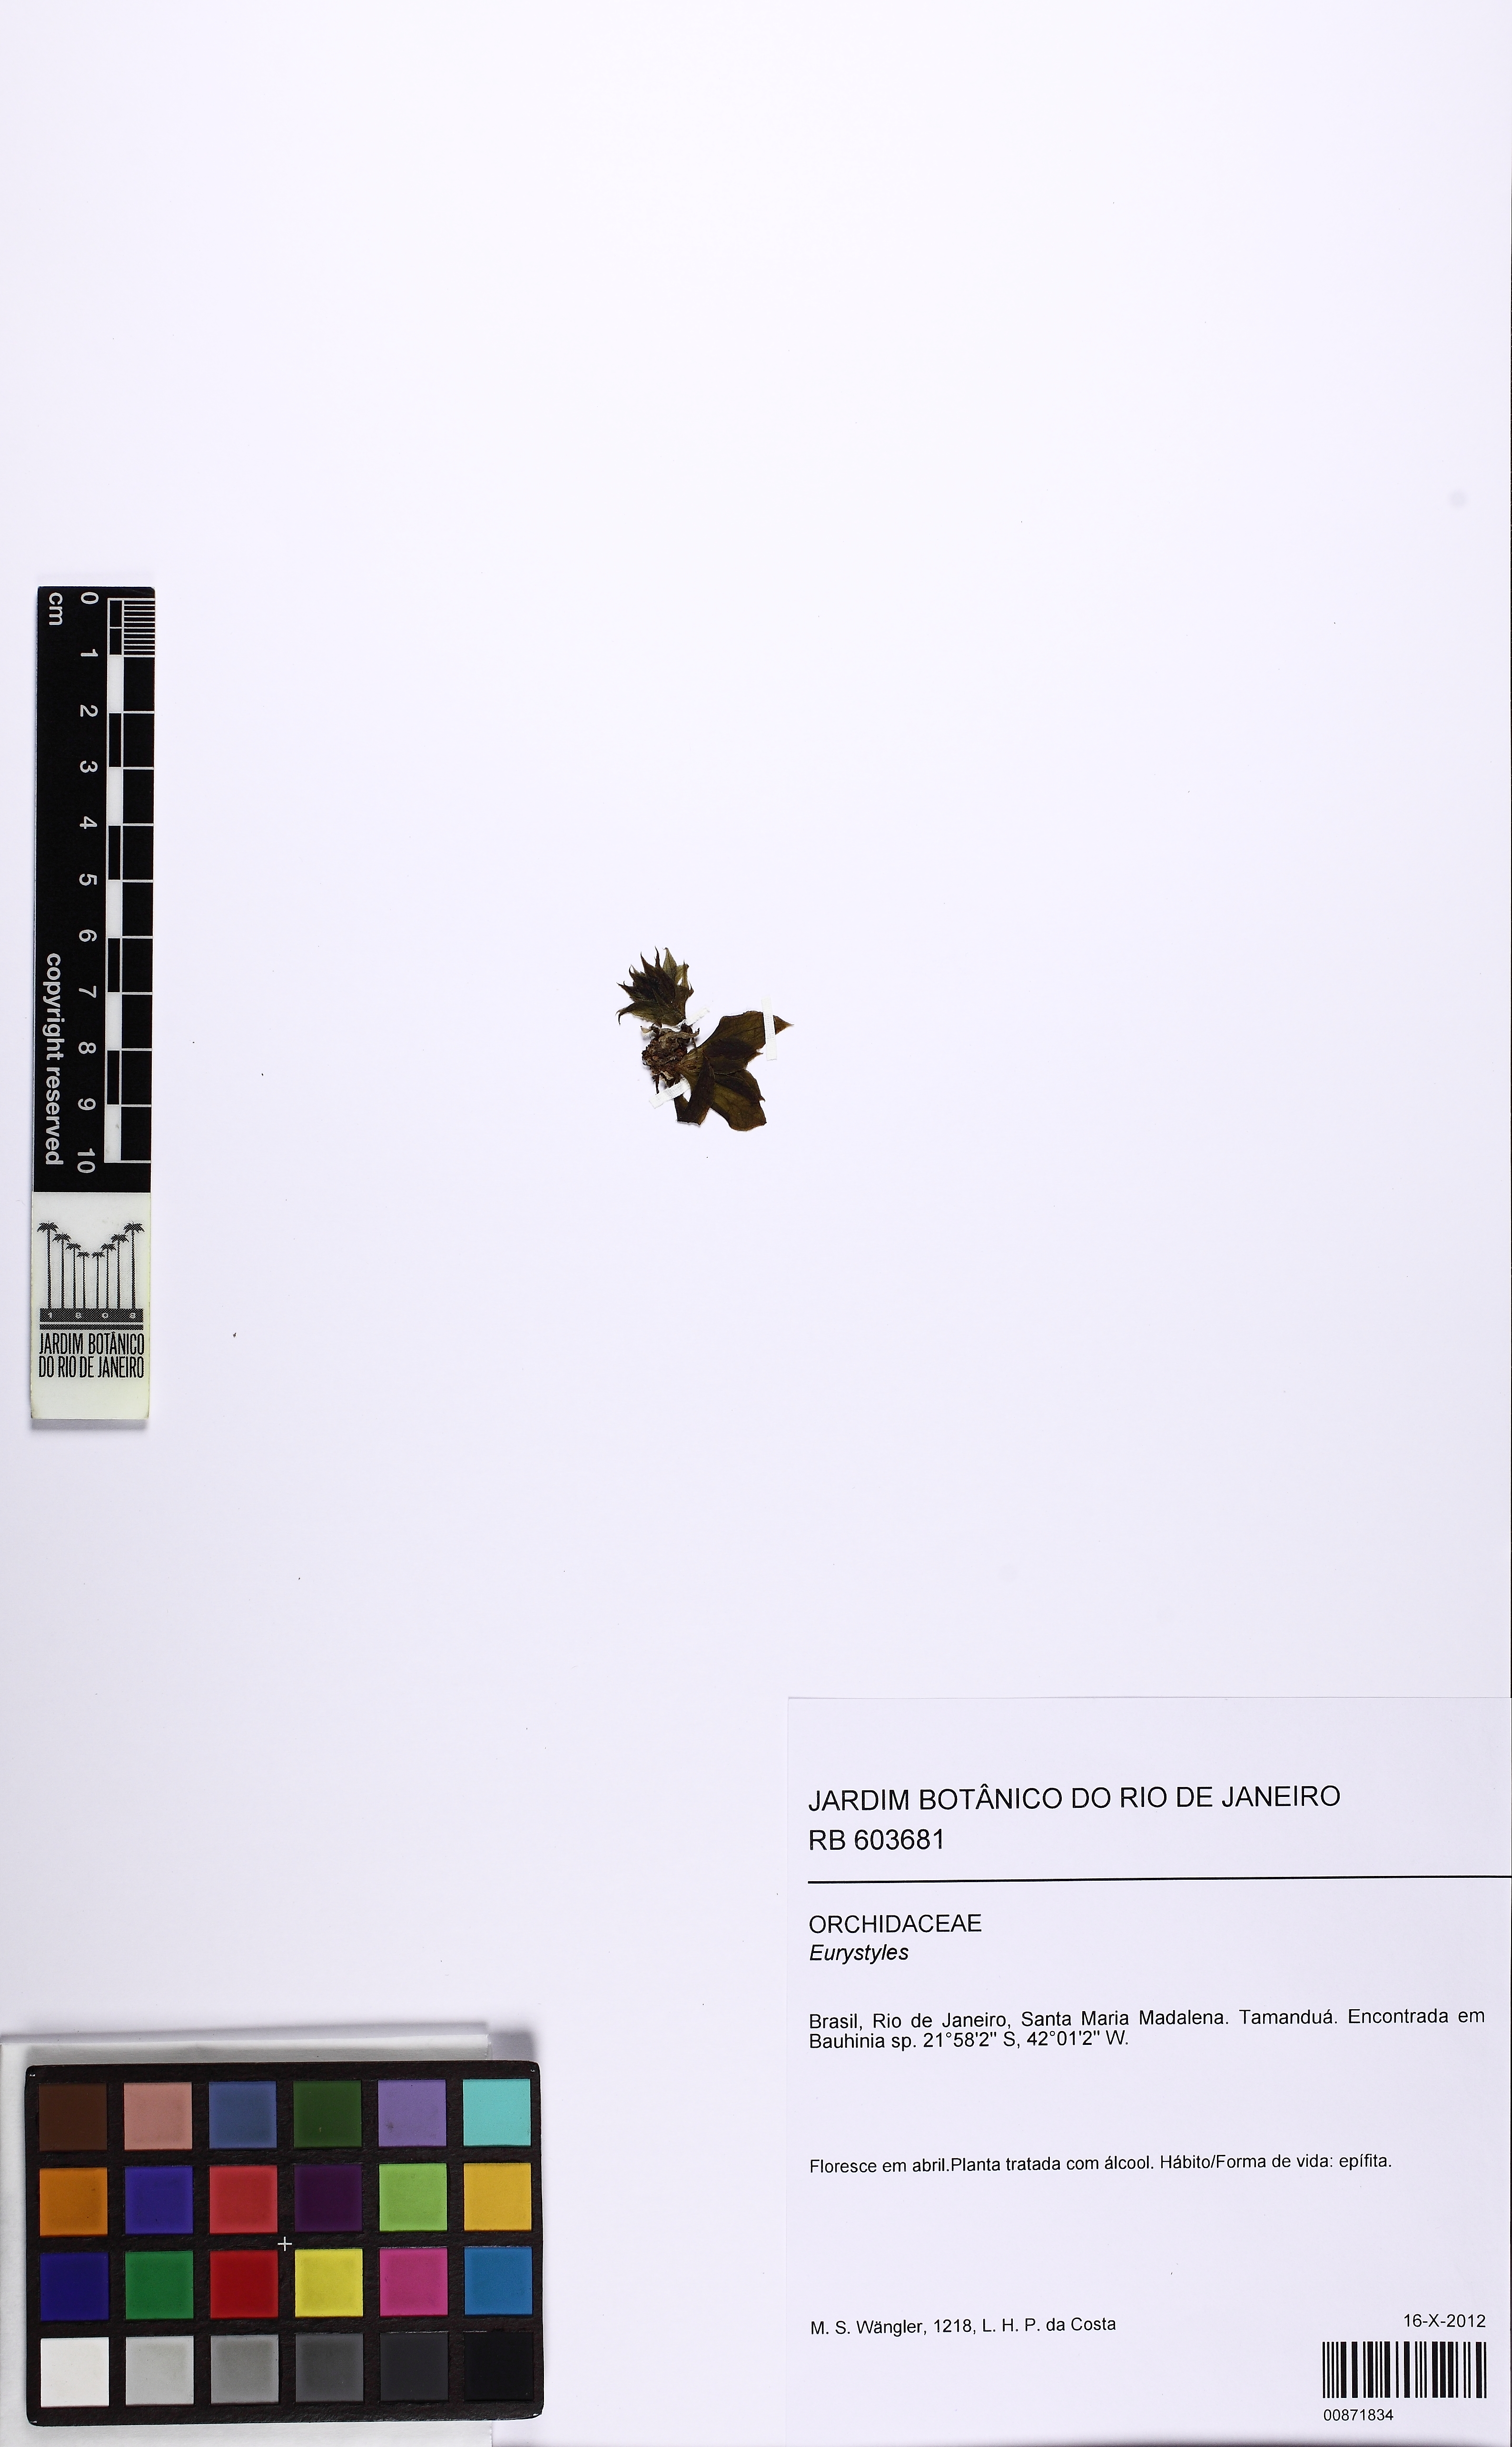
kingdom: Plantae
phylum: Tracheophyta
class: Liliopsida
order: Asparagales
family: Orchidaceae
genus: Eurystyles
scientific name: Eurystyles
